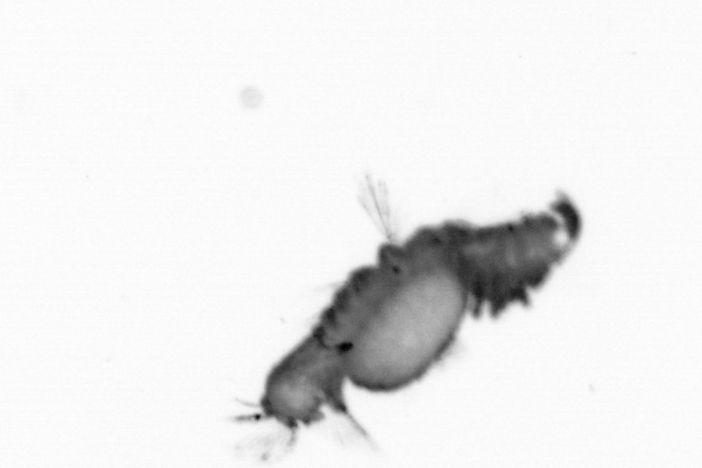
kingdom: Animalia
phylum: Annelida
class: Polychaeta
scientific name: Polychaeta
